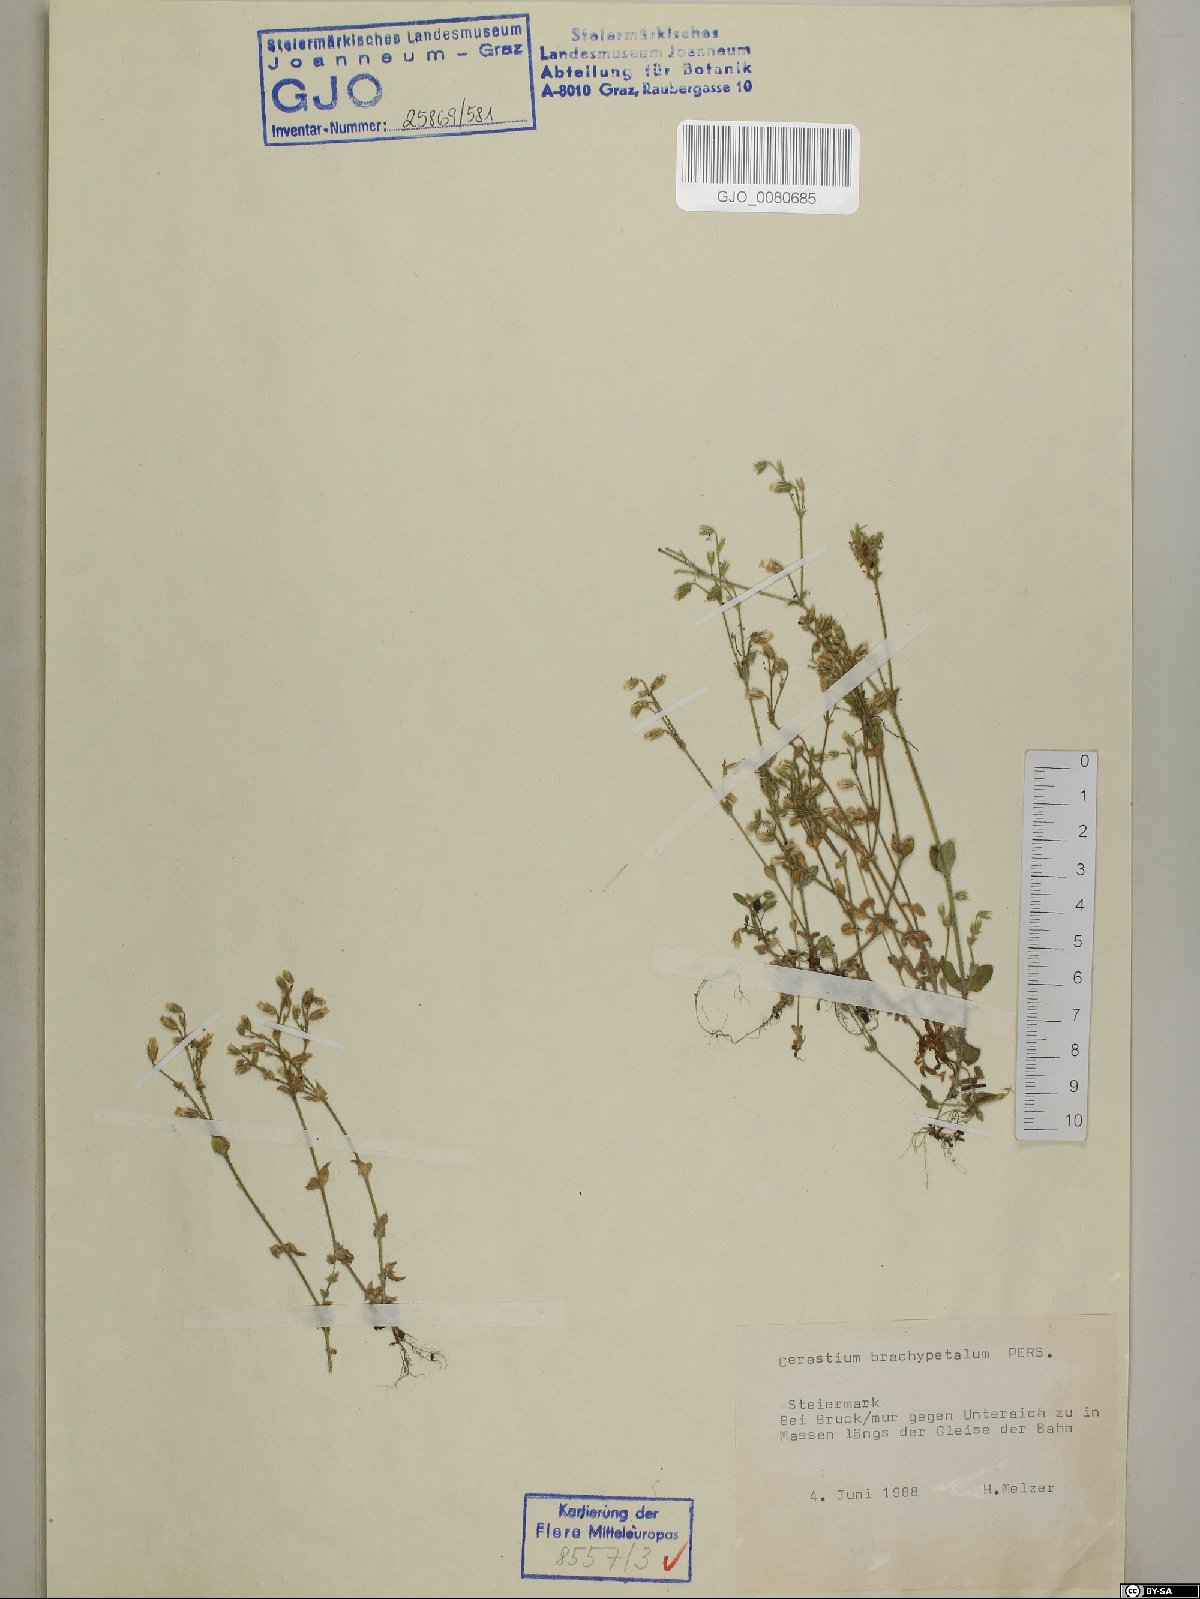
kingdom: Plantae
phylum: Tracheophyta
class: Magnoliopsida
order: Caryophyllales
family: Caryophyllaceae
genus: Cerastium
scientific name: Cerastium brachypetalum
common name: Grey mouse-ear
